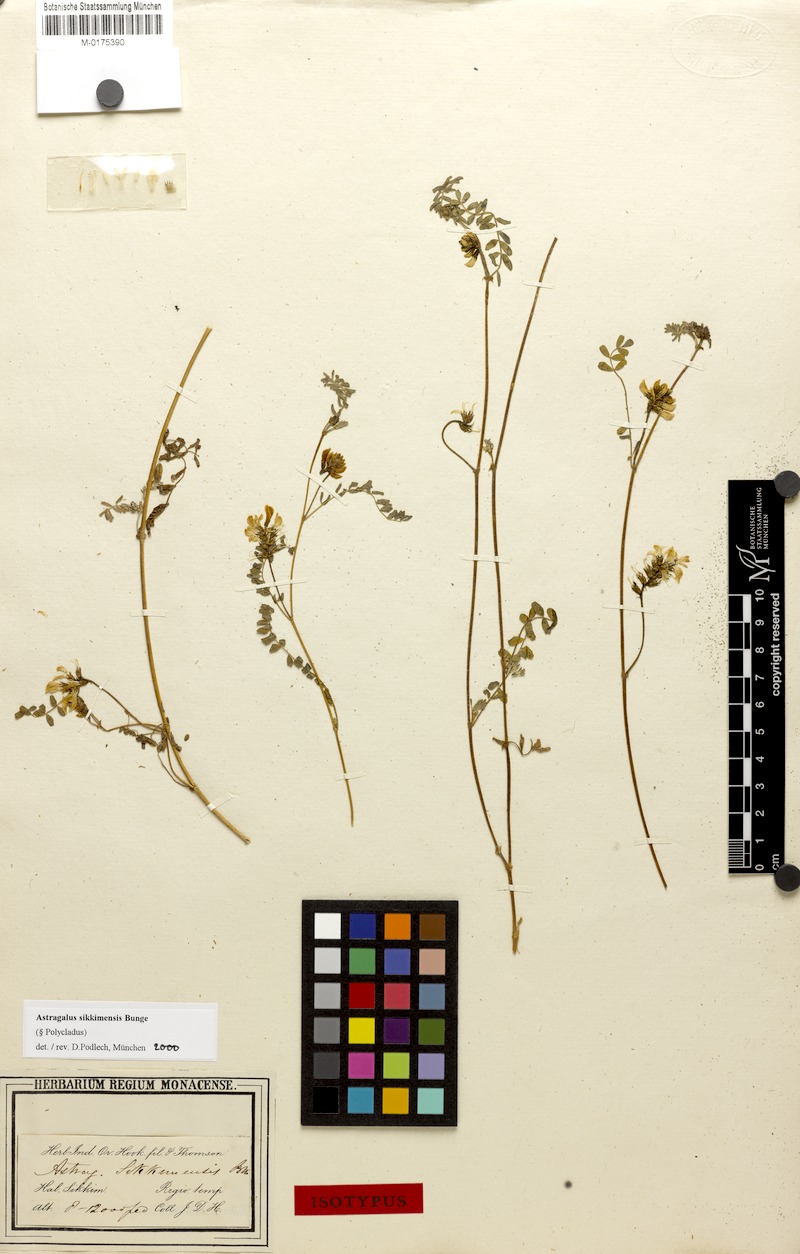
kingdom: Plantae
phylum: Tracheophyta
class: Magnoliopsida
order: Fabales
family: Fabaceae
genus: Astragalus
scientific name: Astragalus sikkimensis
